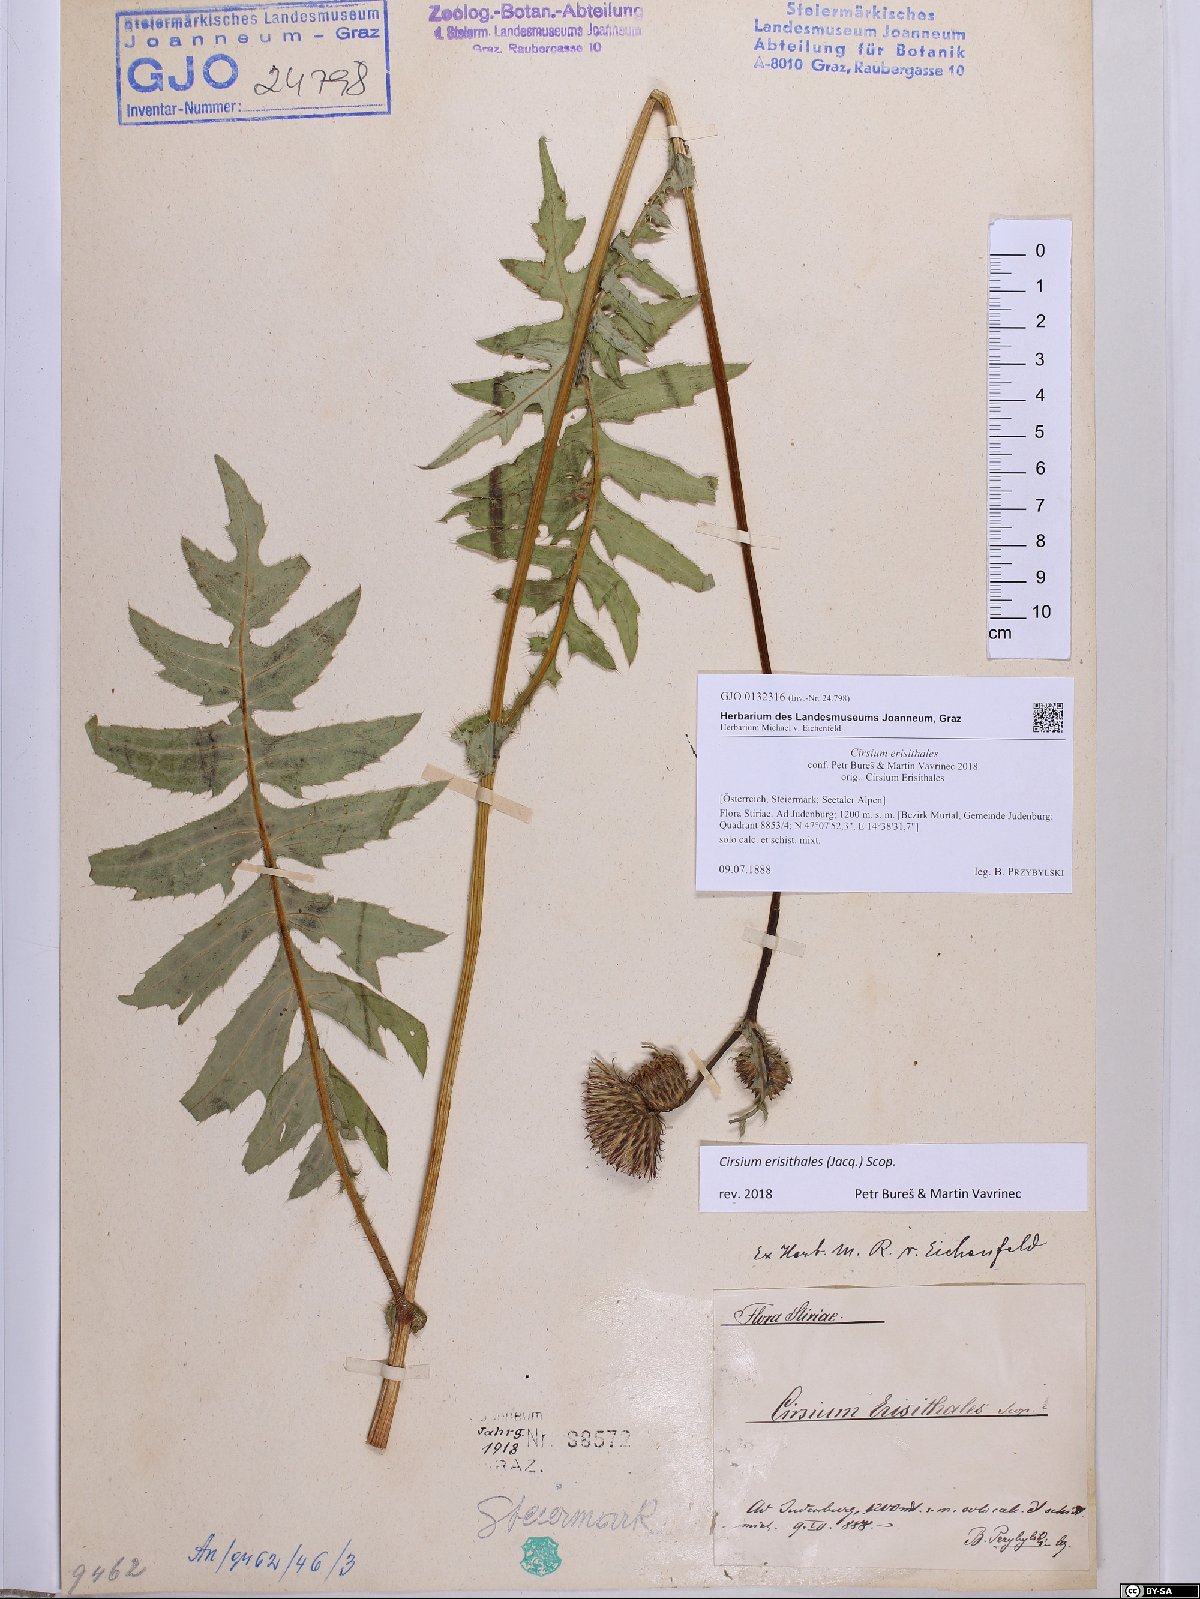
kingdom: Plantae
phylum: Tracheophyta
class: Magnoliopsida
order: Asterales
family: Asteraceae
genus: Cirsium
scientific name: Cirsium erisithales
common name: Yellow thistle
